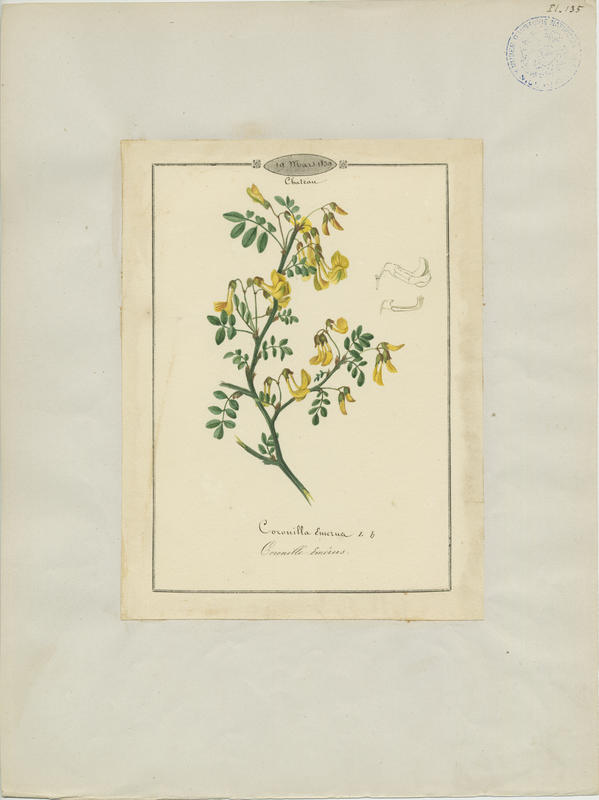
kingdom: Plantae
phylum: Tracheophyta
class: Magnoliopsida
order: Fabales
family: Fabaceae
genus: Hippocrepis
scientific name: Hippocrepis emerus
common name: Scorpion senna
